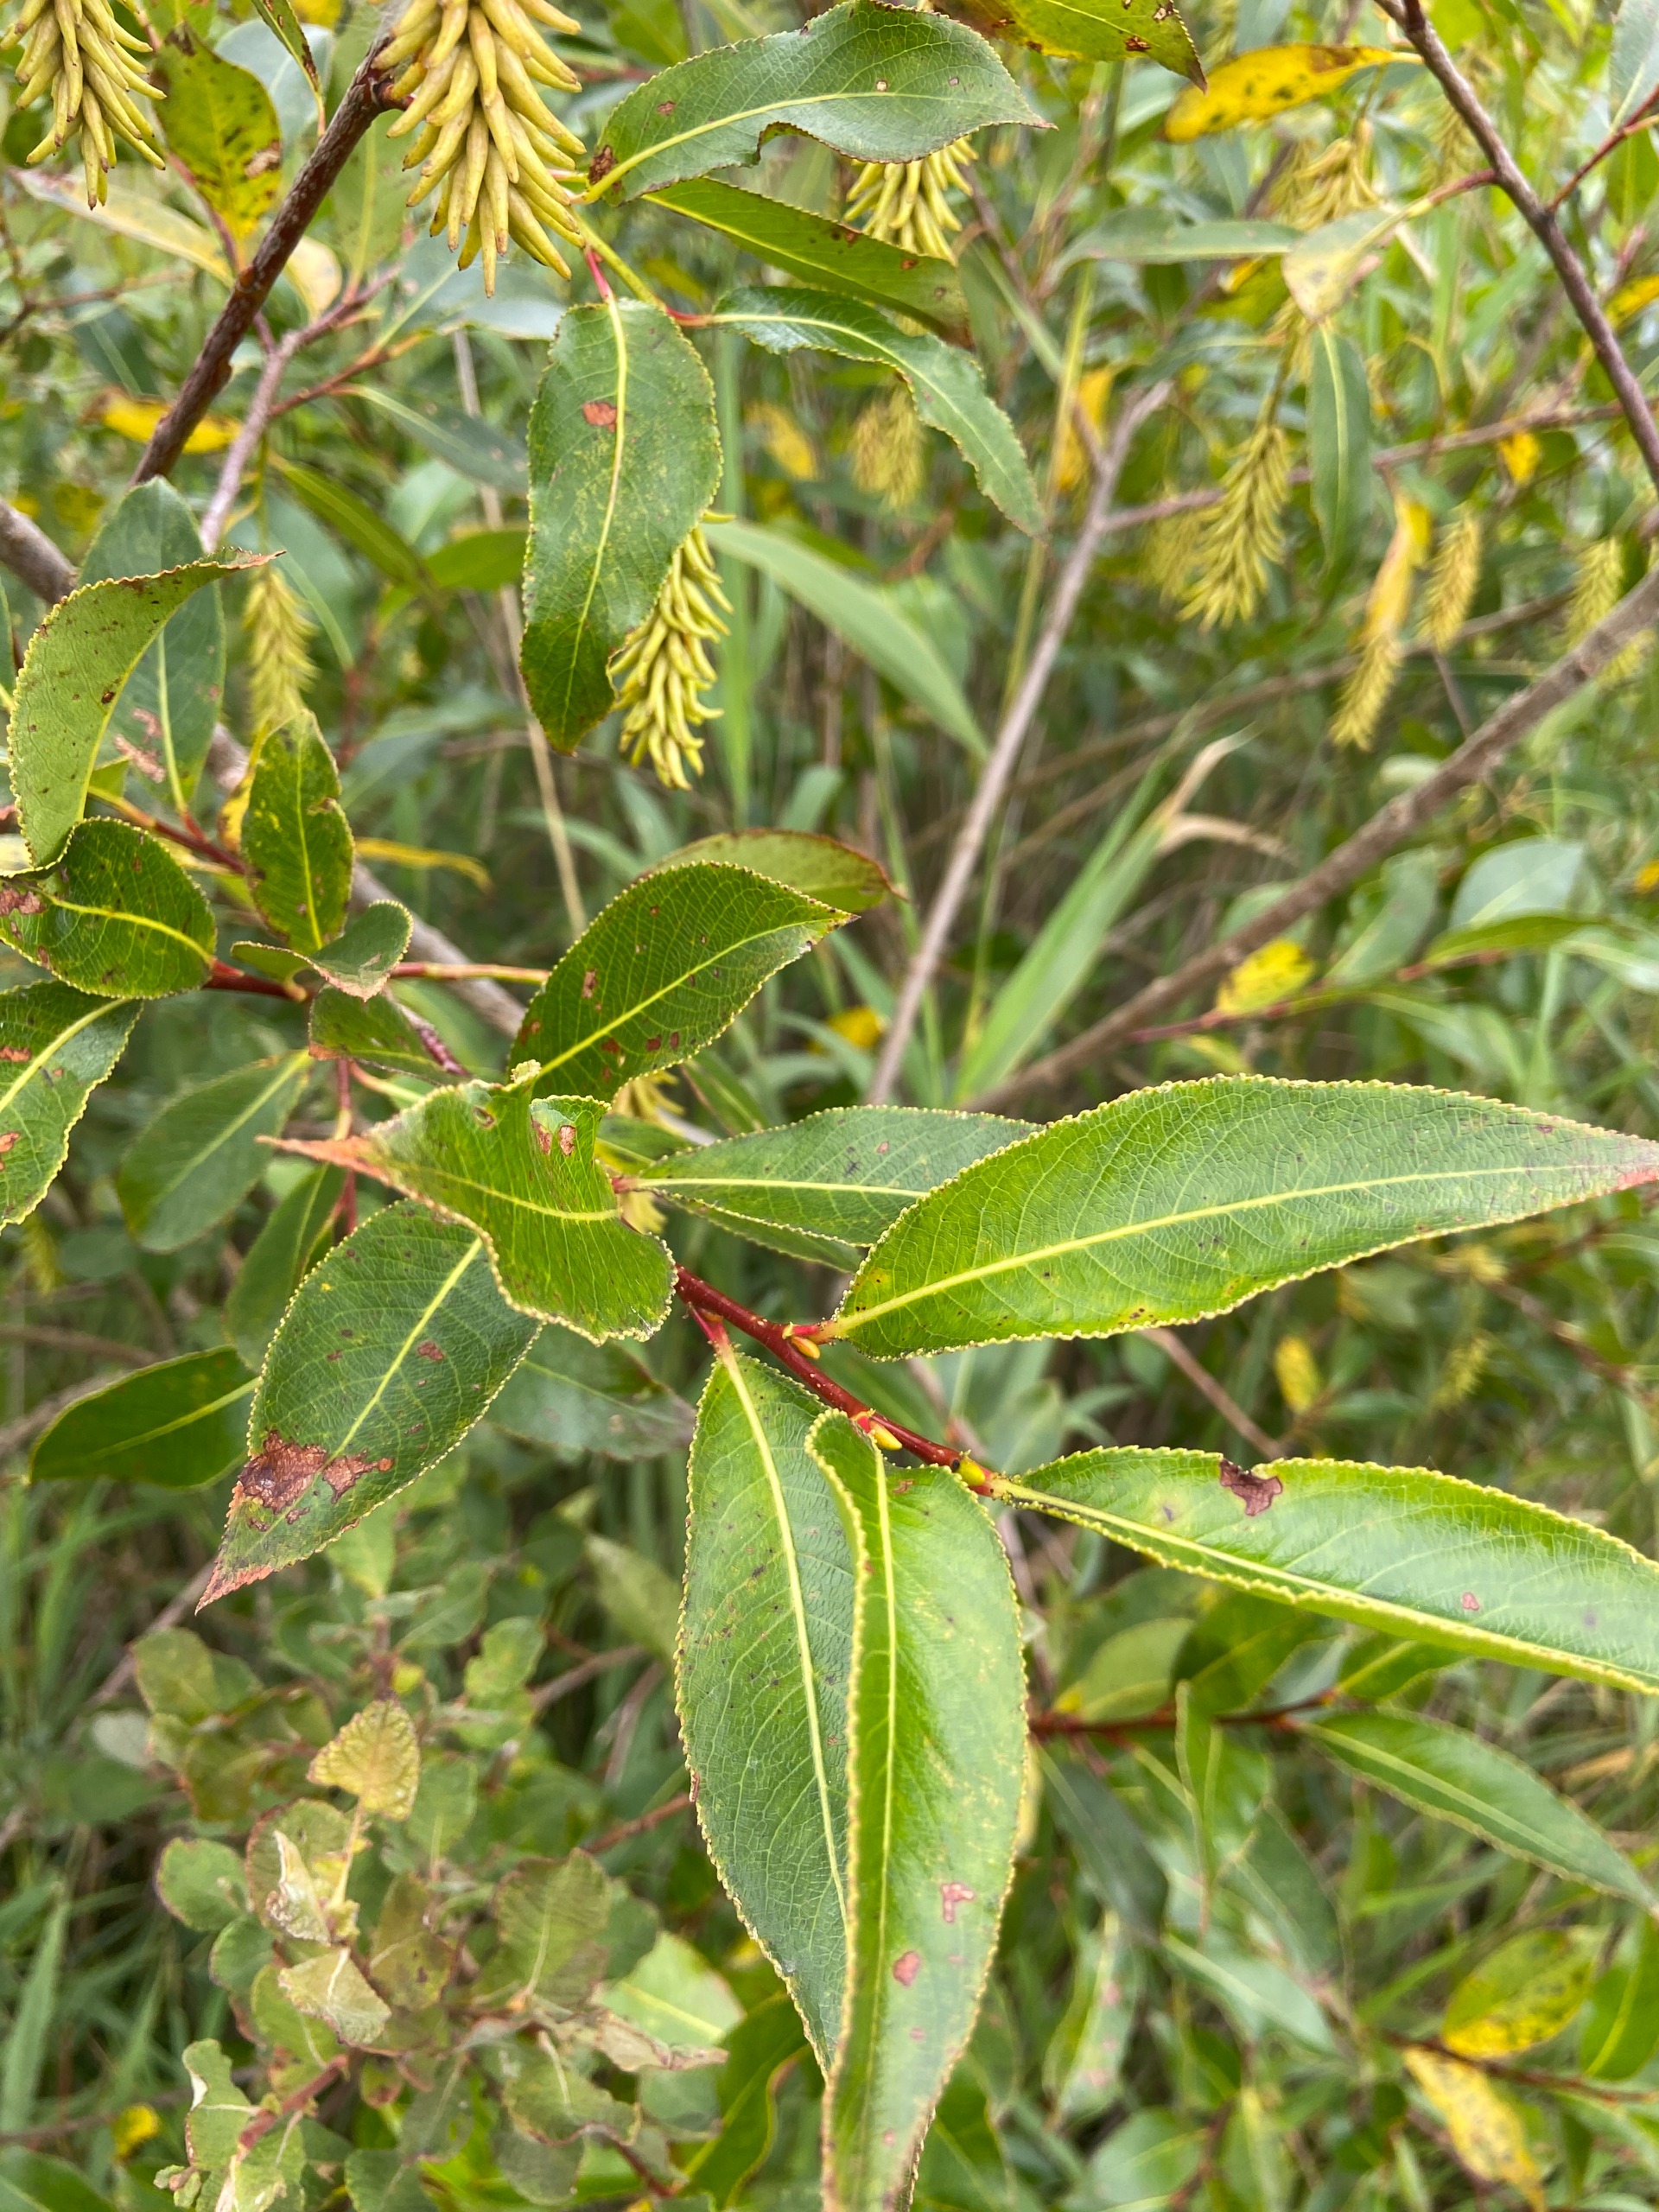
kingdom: Plantae
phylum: Tracheophyta
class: Magnoliopsida
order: Malpighiales
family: Salicaceae
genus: Salix
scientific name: Salix pentandra
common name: Femhannet pil
